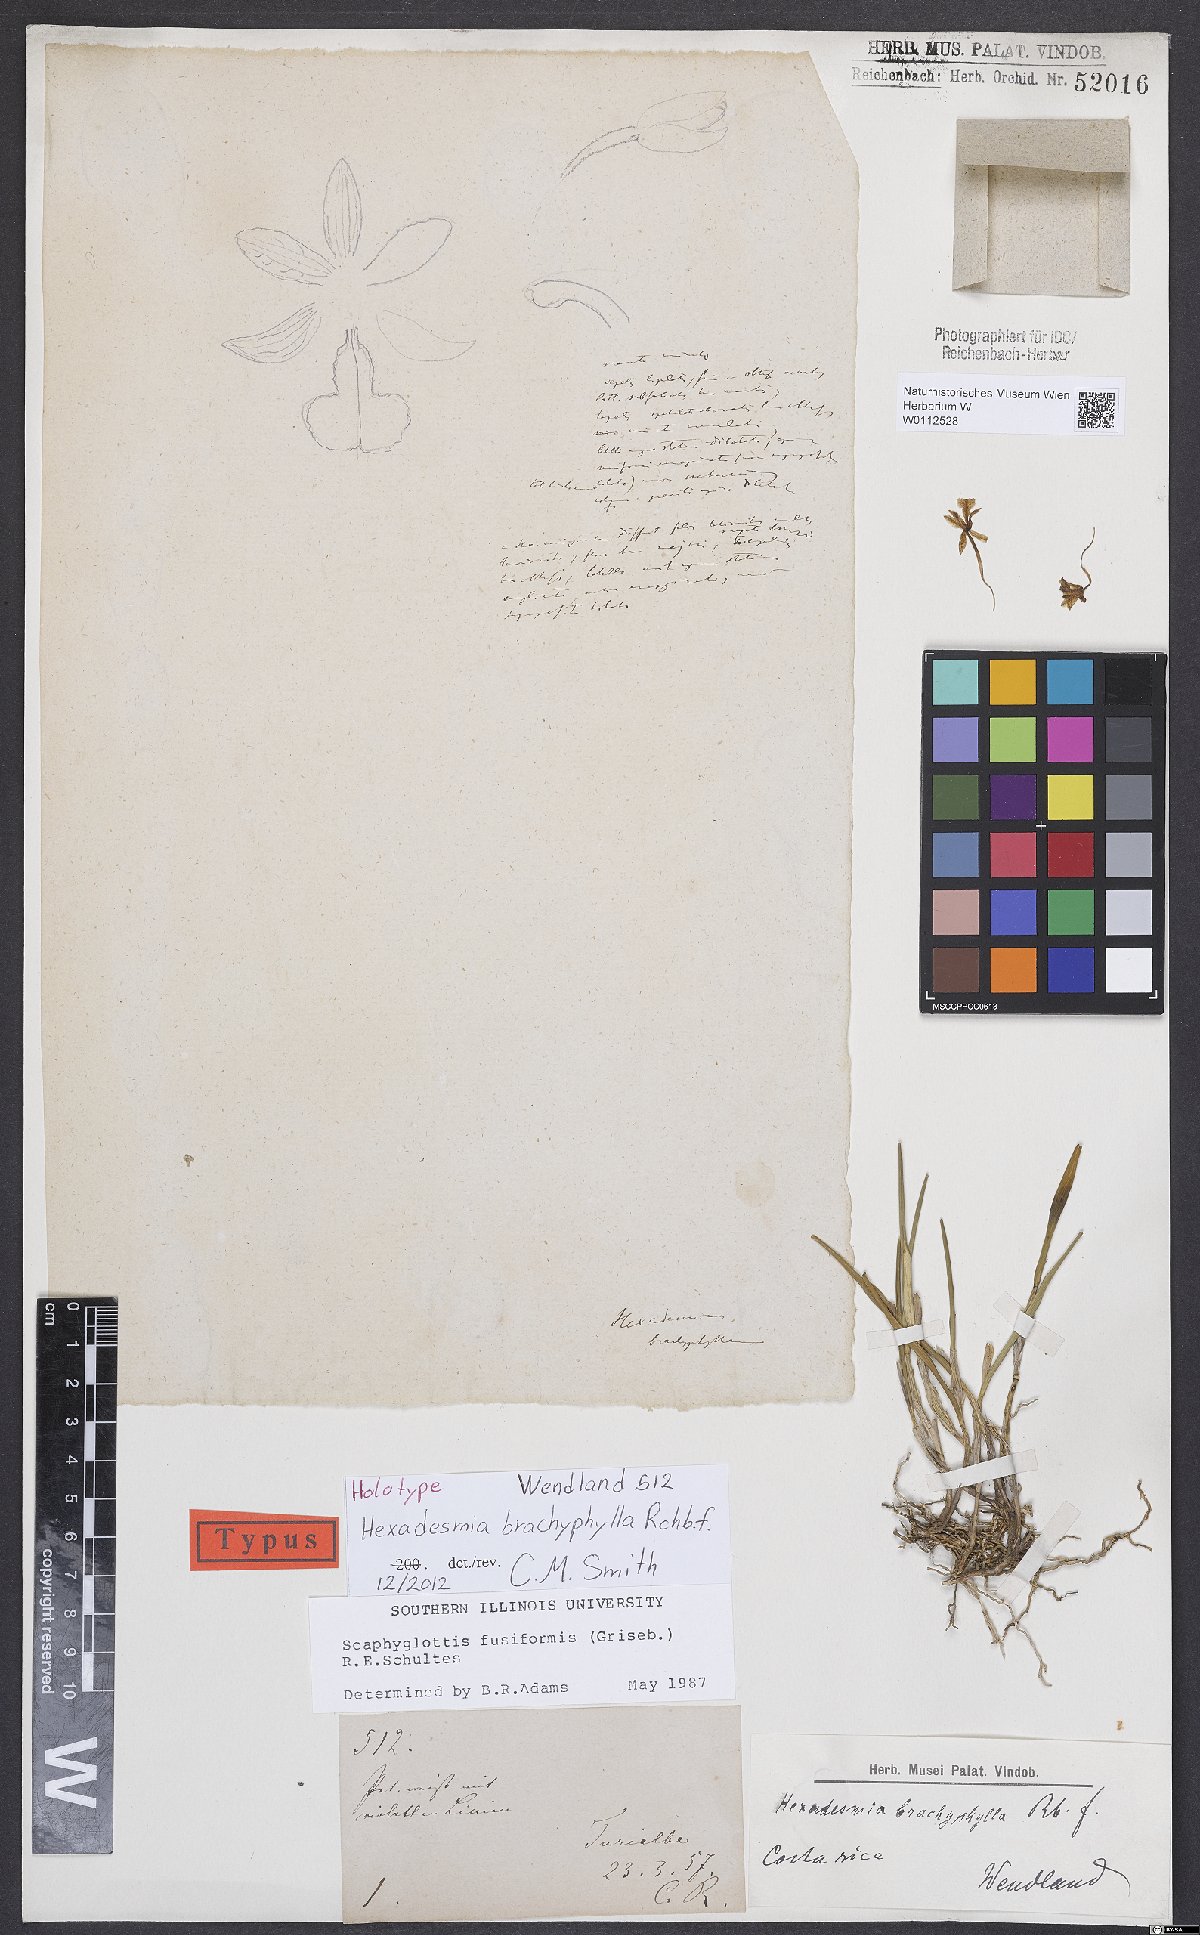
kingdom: Plantae
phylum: Tracheophyta
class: Liliopsida
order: Asparagales
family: Orchidaceae
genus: Scaphyglottis
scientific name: Scaphyglottis fusiformis
